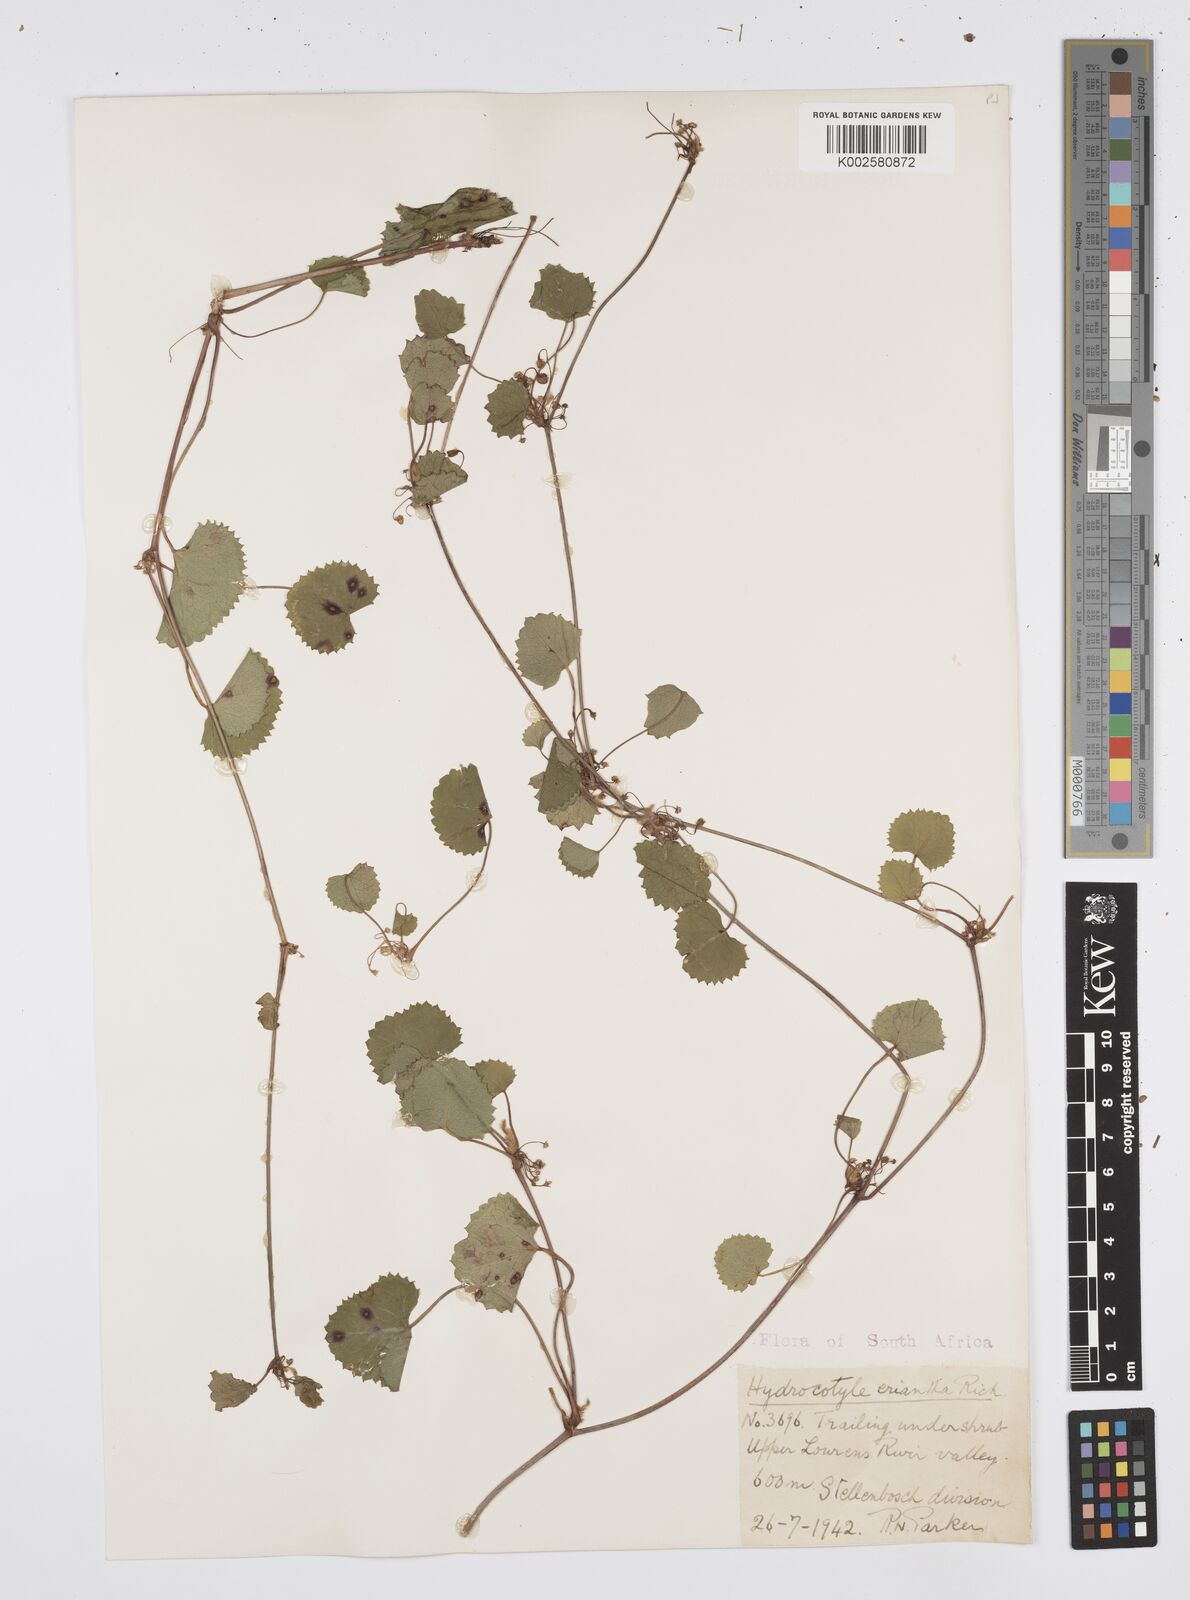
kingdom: Plantae
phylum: Tracheophyta
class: Magnoliopsida
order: Apiales
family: Apiaceae
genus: Centella
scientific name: Centella eriantha
